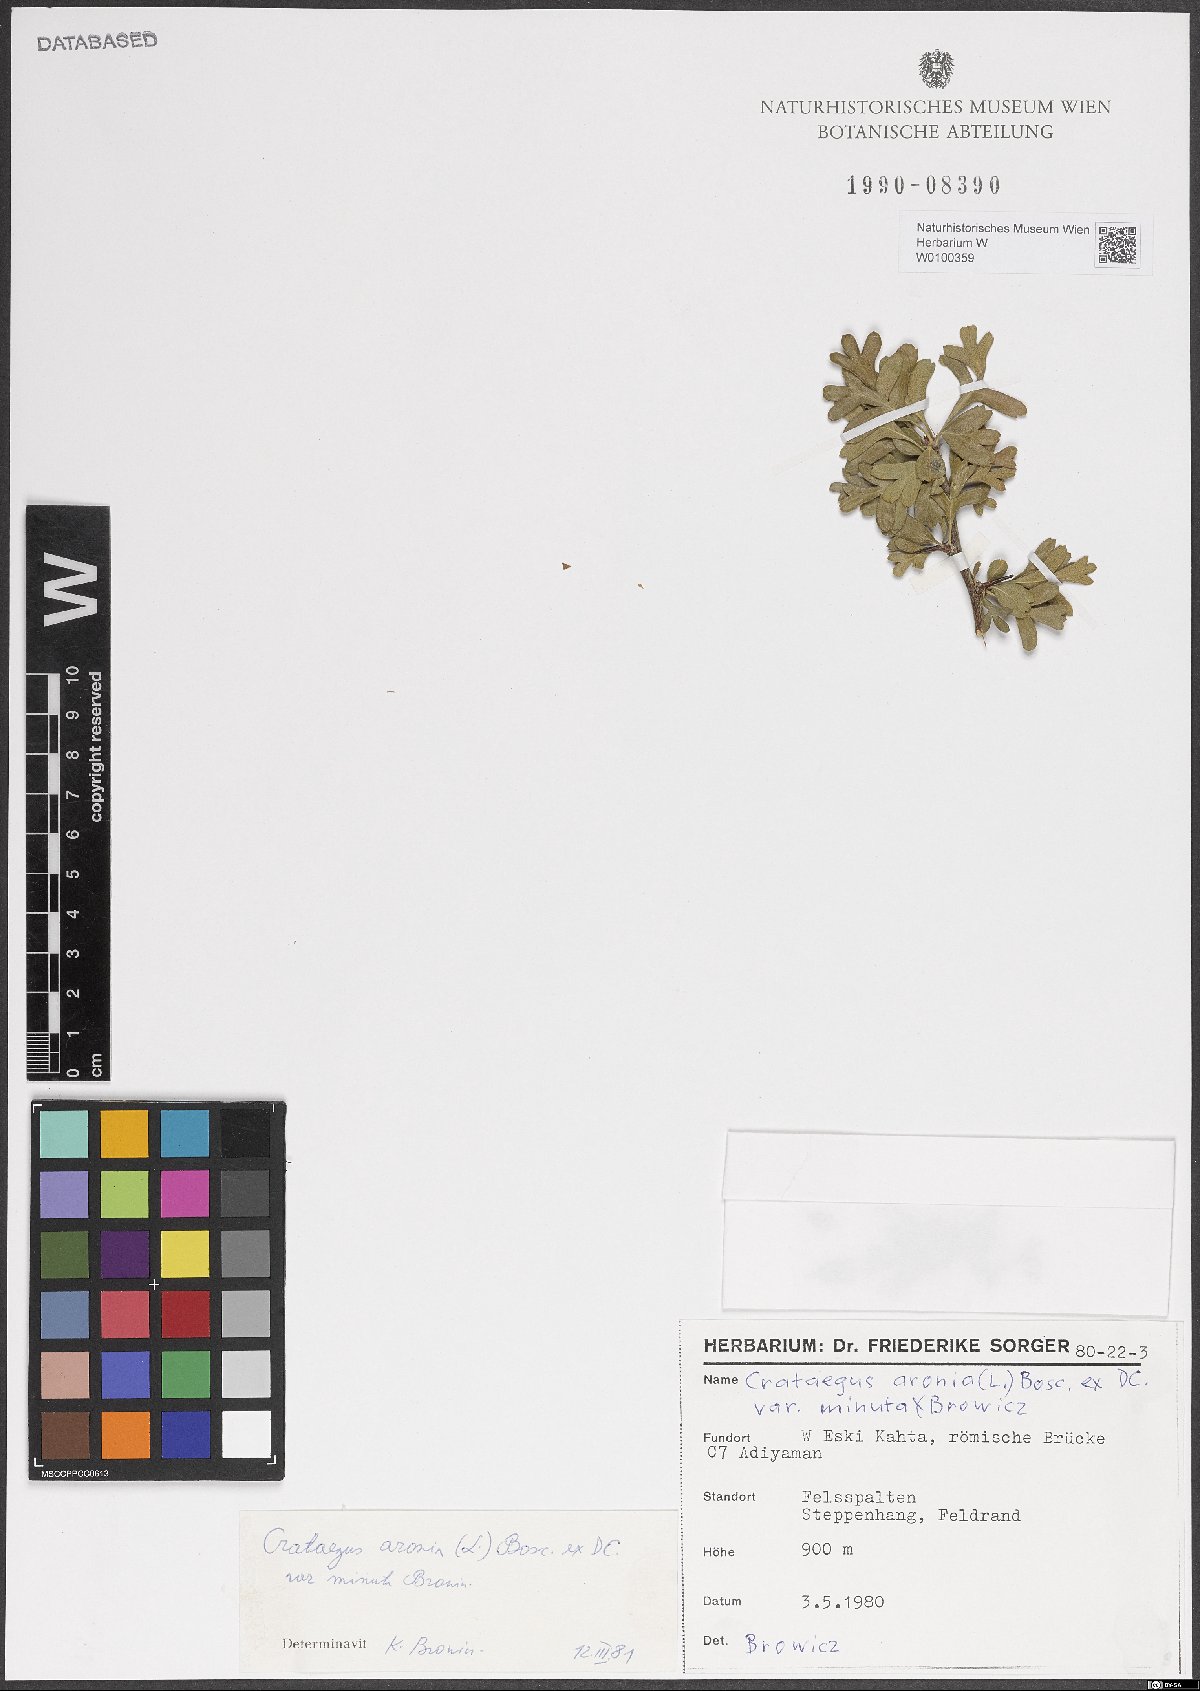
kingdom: Plantae
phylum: Tracheophyta
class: Magnoliopsida
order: Rosales
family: Rosaceae
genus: Crataegus
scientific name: Crataegus azarolus
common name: Azarole
